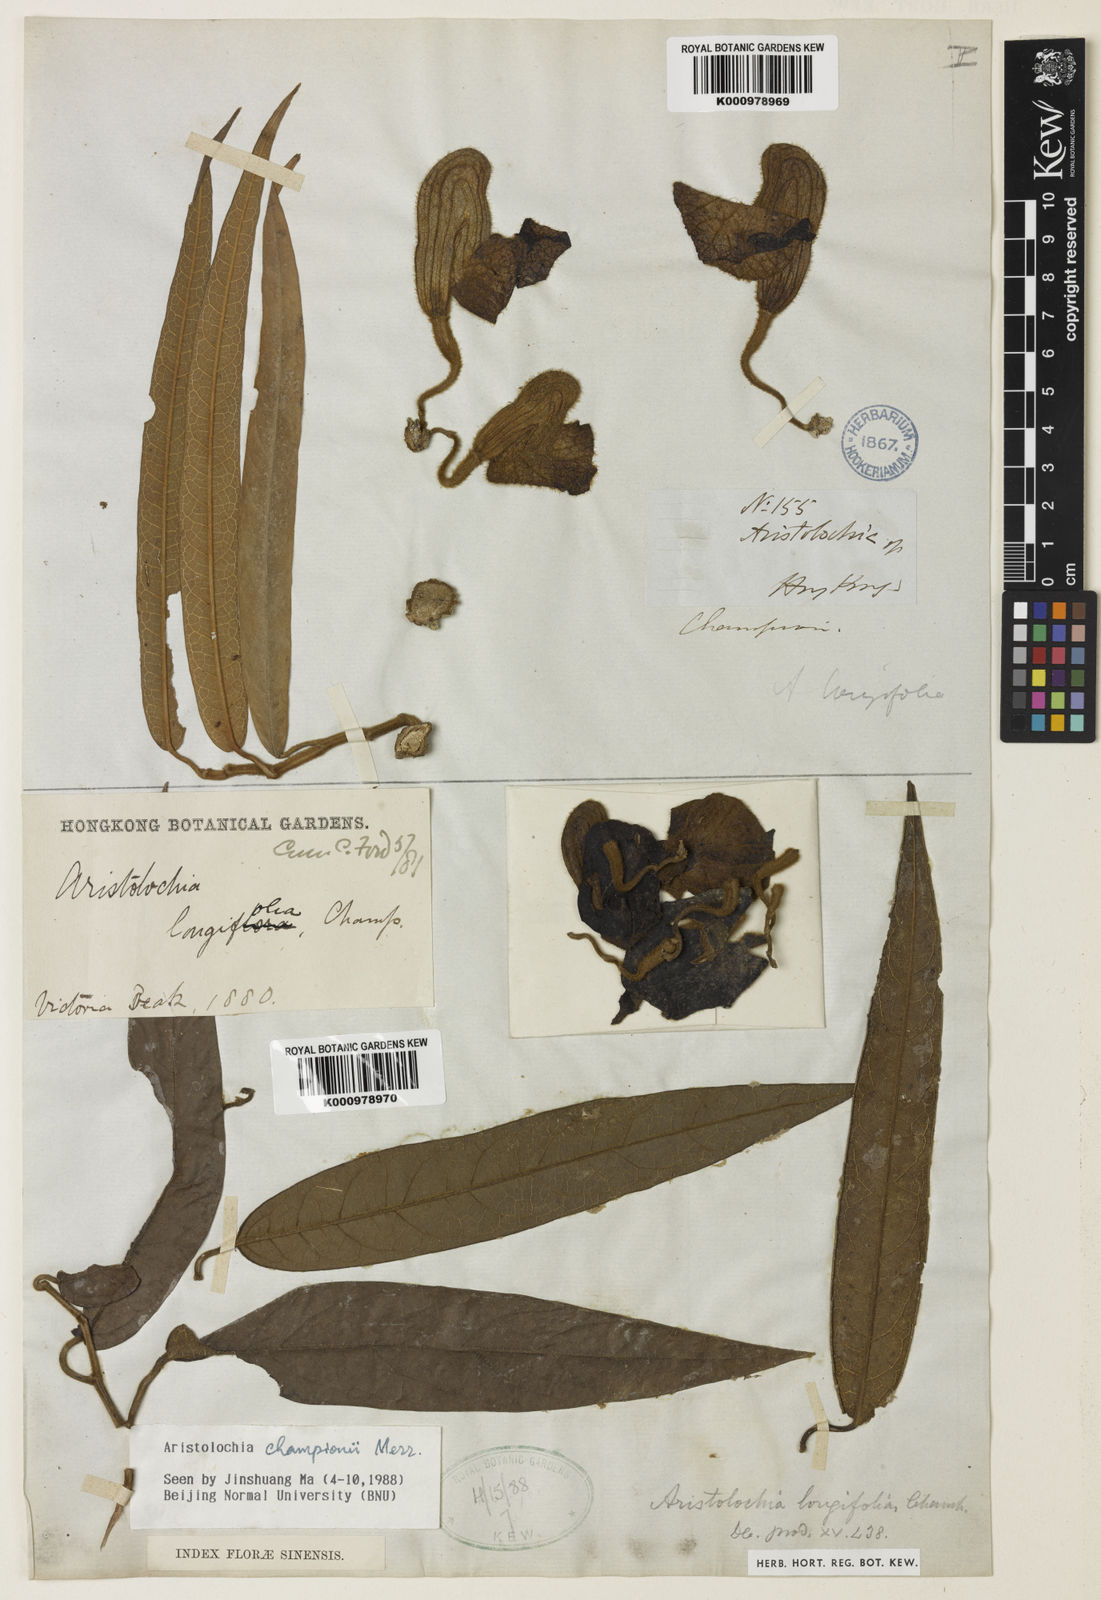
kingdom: Plantae
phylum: Tracheophyta
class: Magnoliopsida
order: Piperales
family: Aristolochiaceae
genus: Isotrema
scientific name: Isotrema championii
